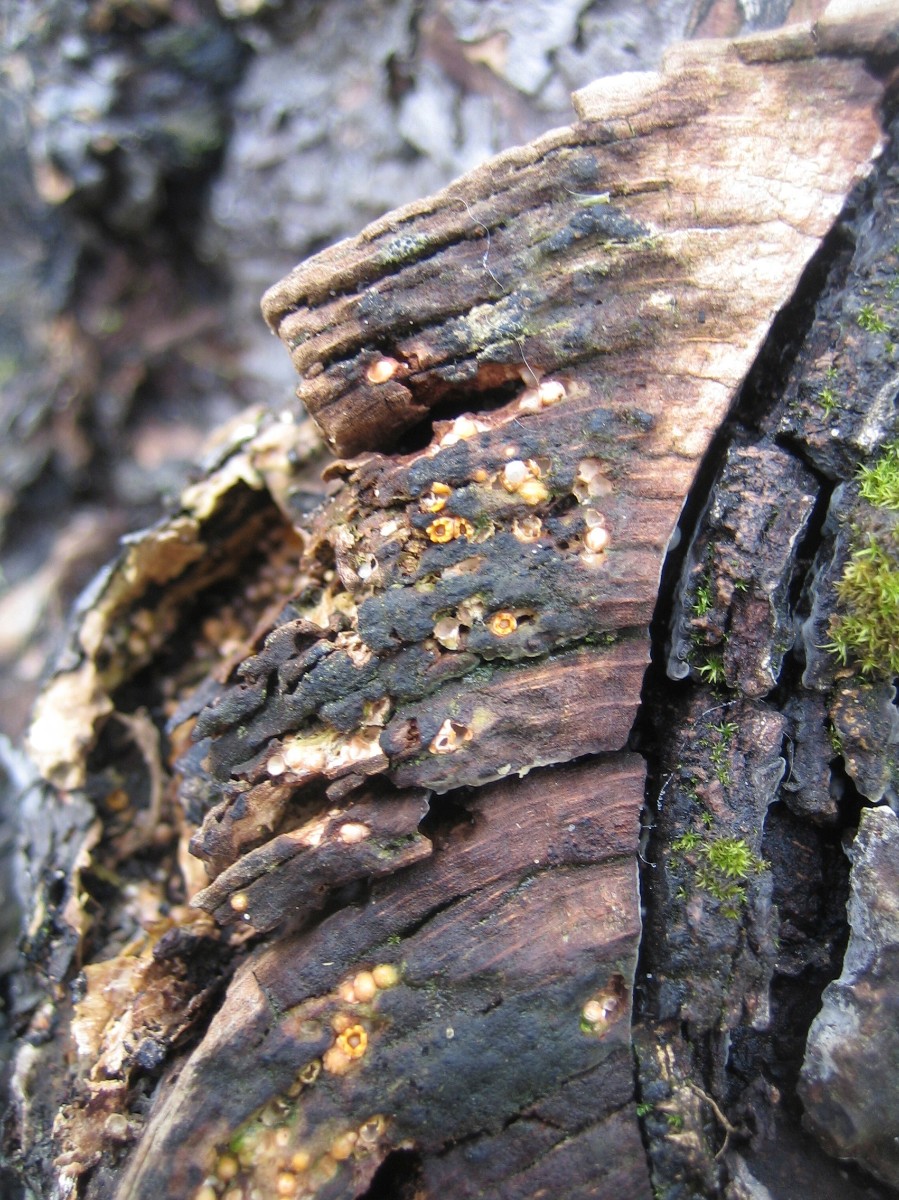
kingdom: Fungi
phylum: Basidiomycota
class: Agaricomycetes
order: Geastrales
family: Geastraceae
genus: Sphaerobolus
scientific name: Sphaerobolus
